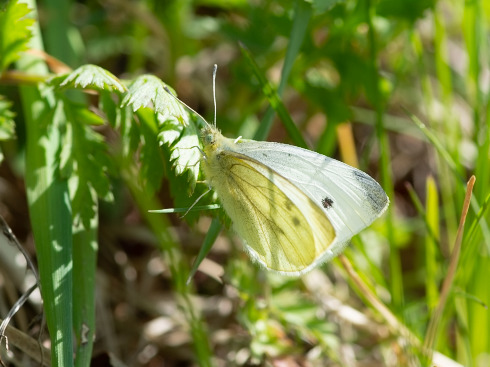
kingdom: Animalia
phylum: Arthropoda
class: Insecta
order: Lepidoptera
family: Pieridae
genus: Pieris
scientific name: Pieris rapae
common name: Lille kålsommerfugl
